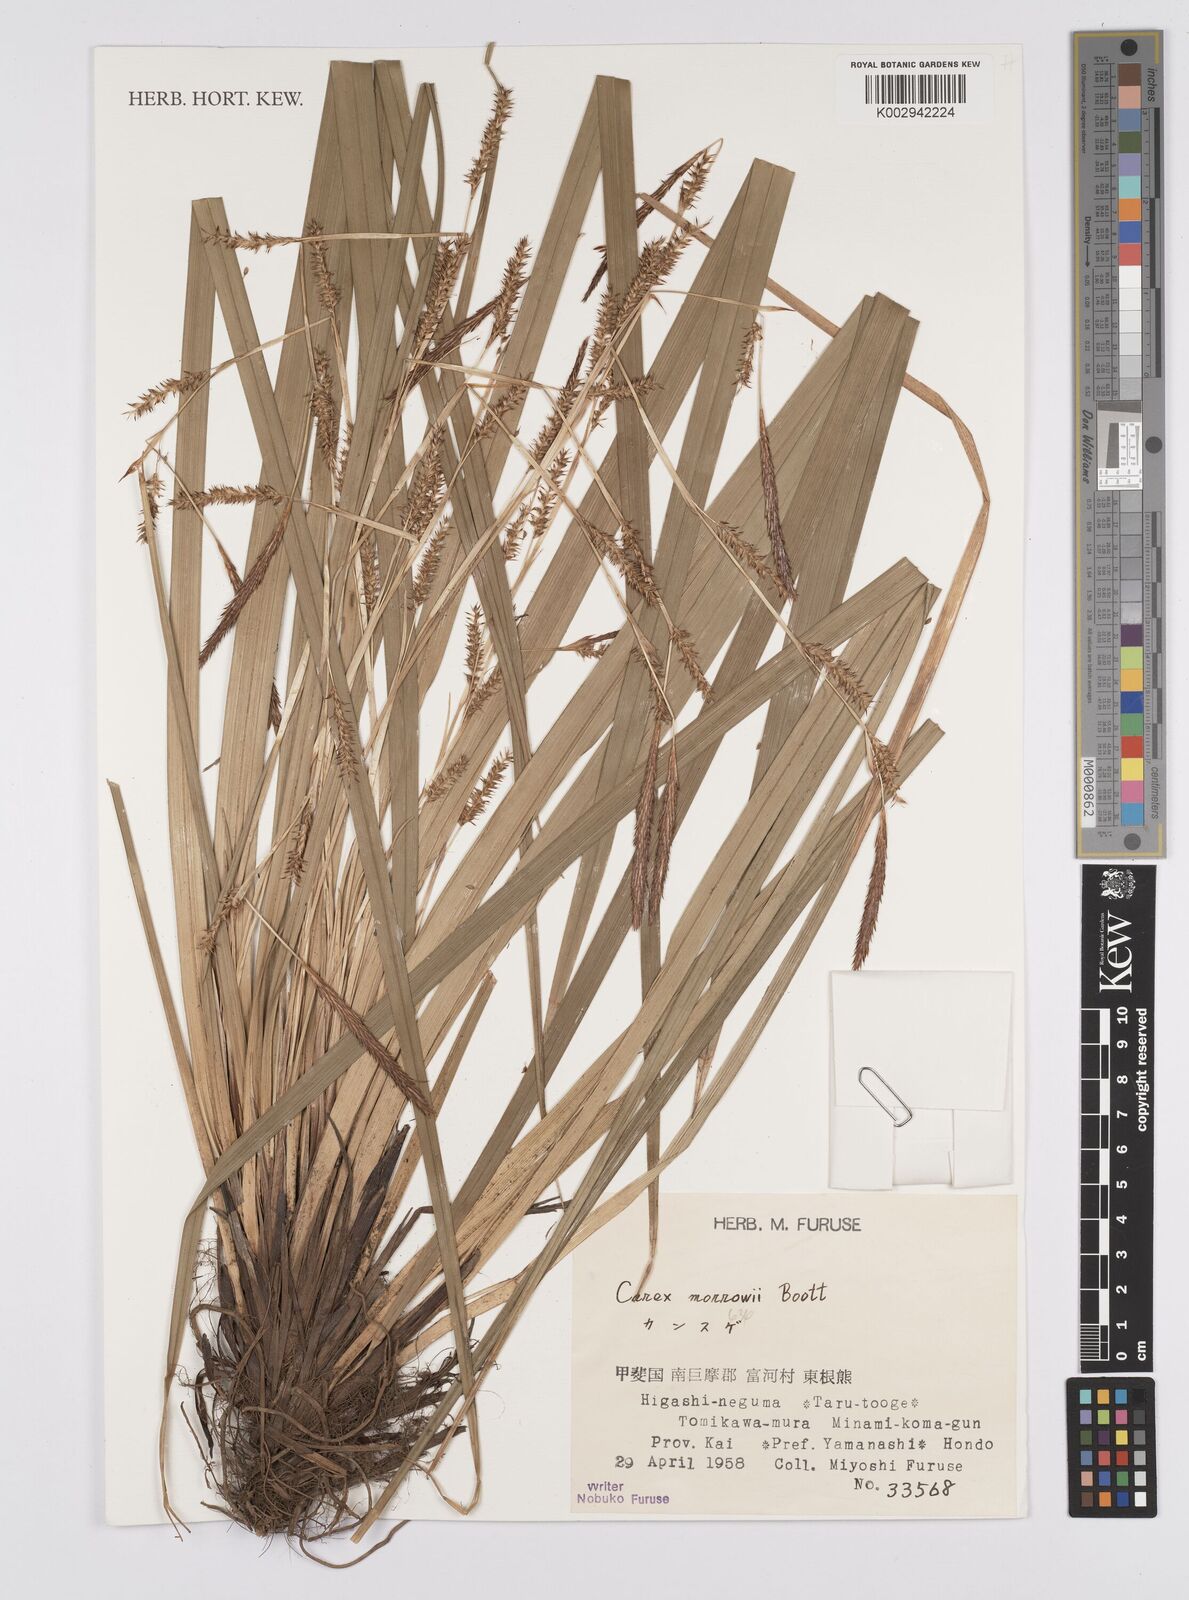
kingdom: Plantae
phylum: Tracheophyta
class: Liliopsida
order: Poales
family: Cyperaceae
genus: Carex
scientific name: Carex morrowii
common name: Japanese sedge
